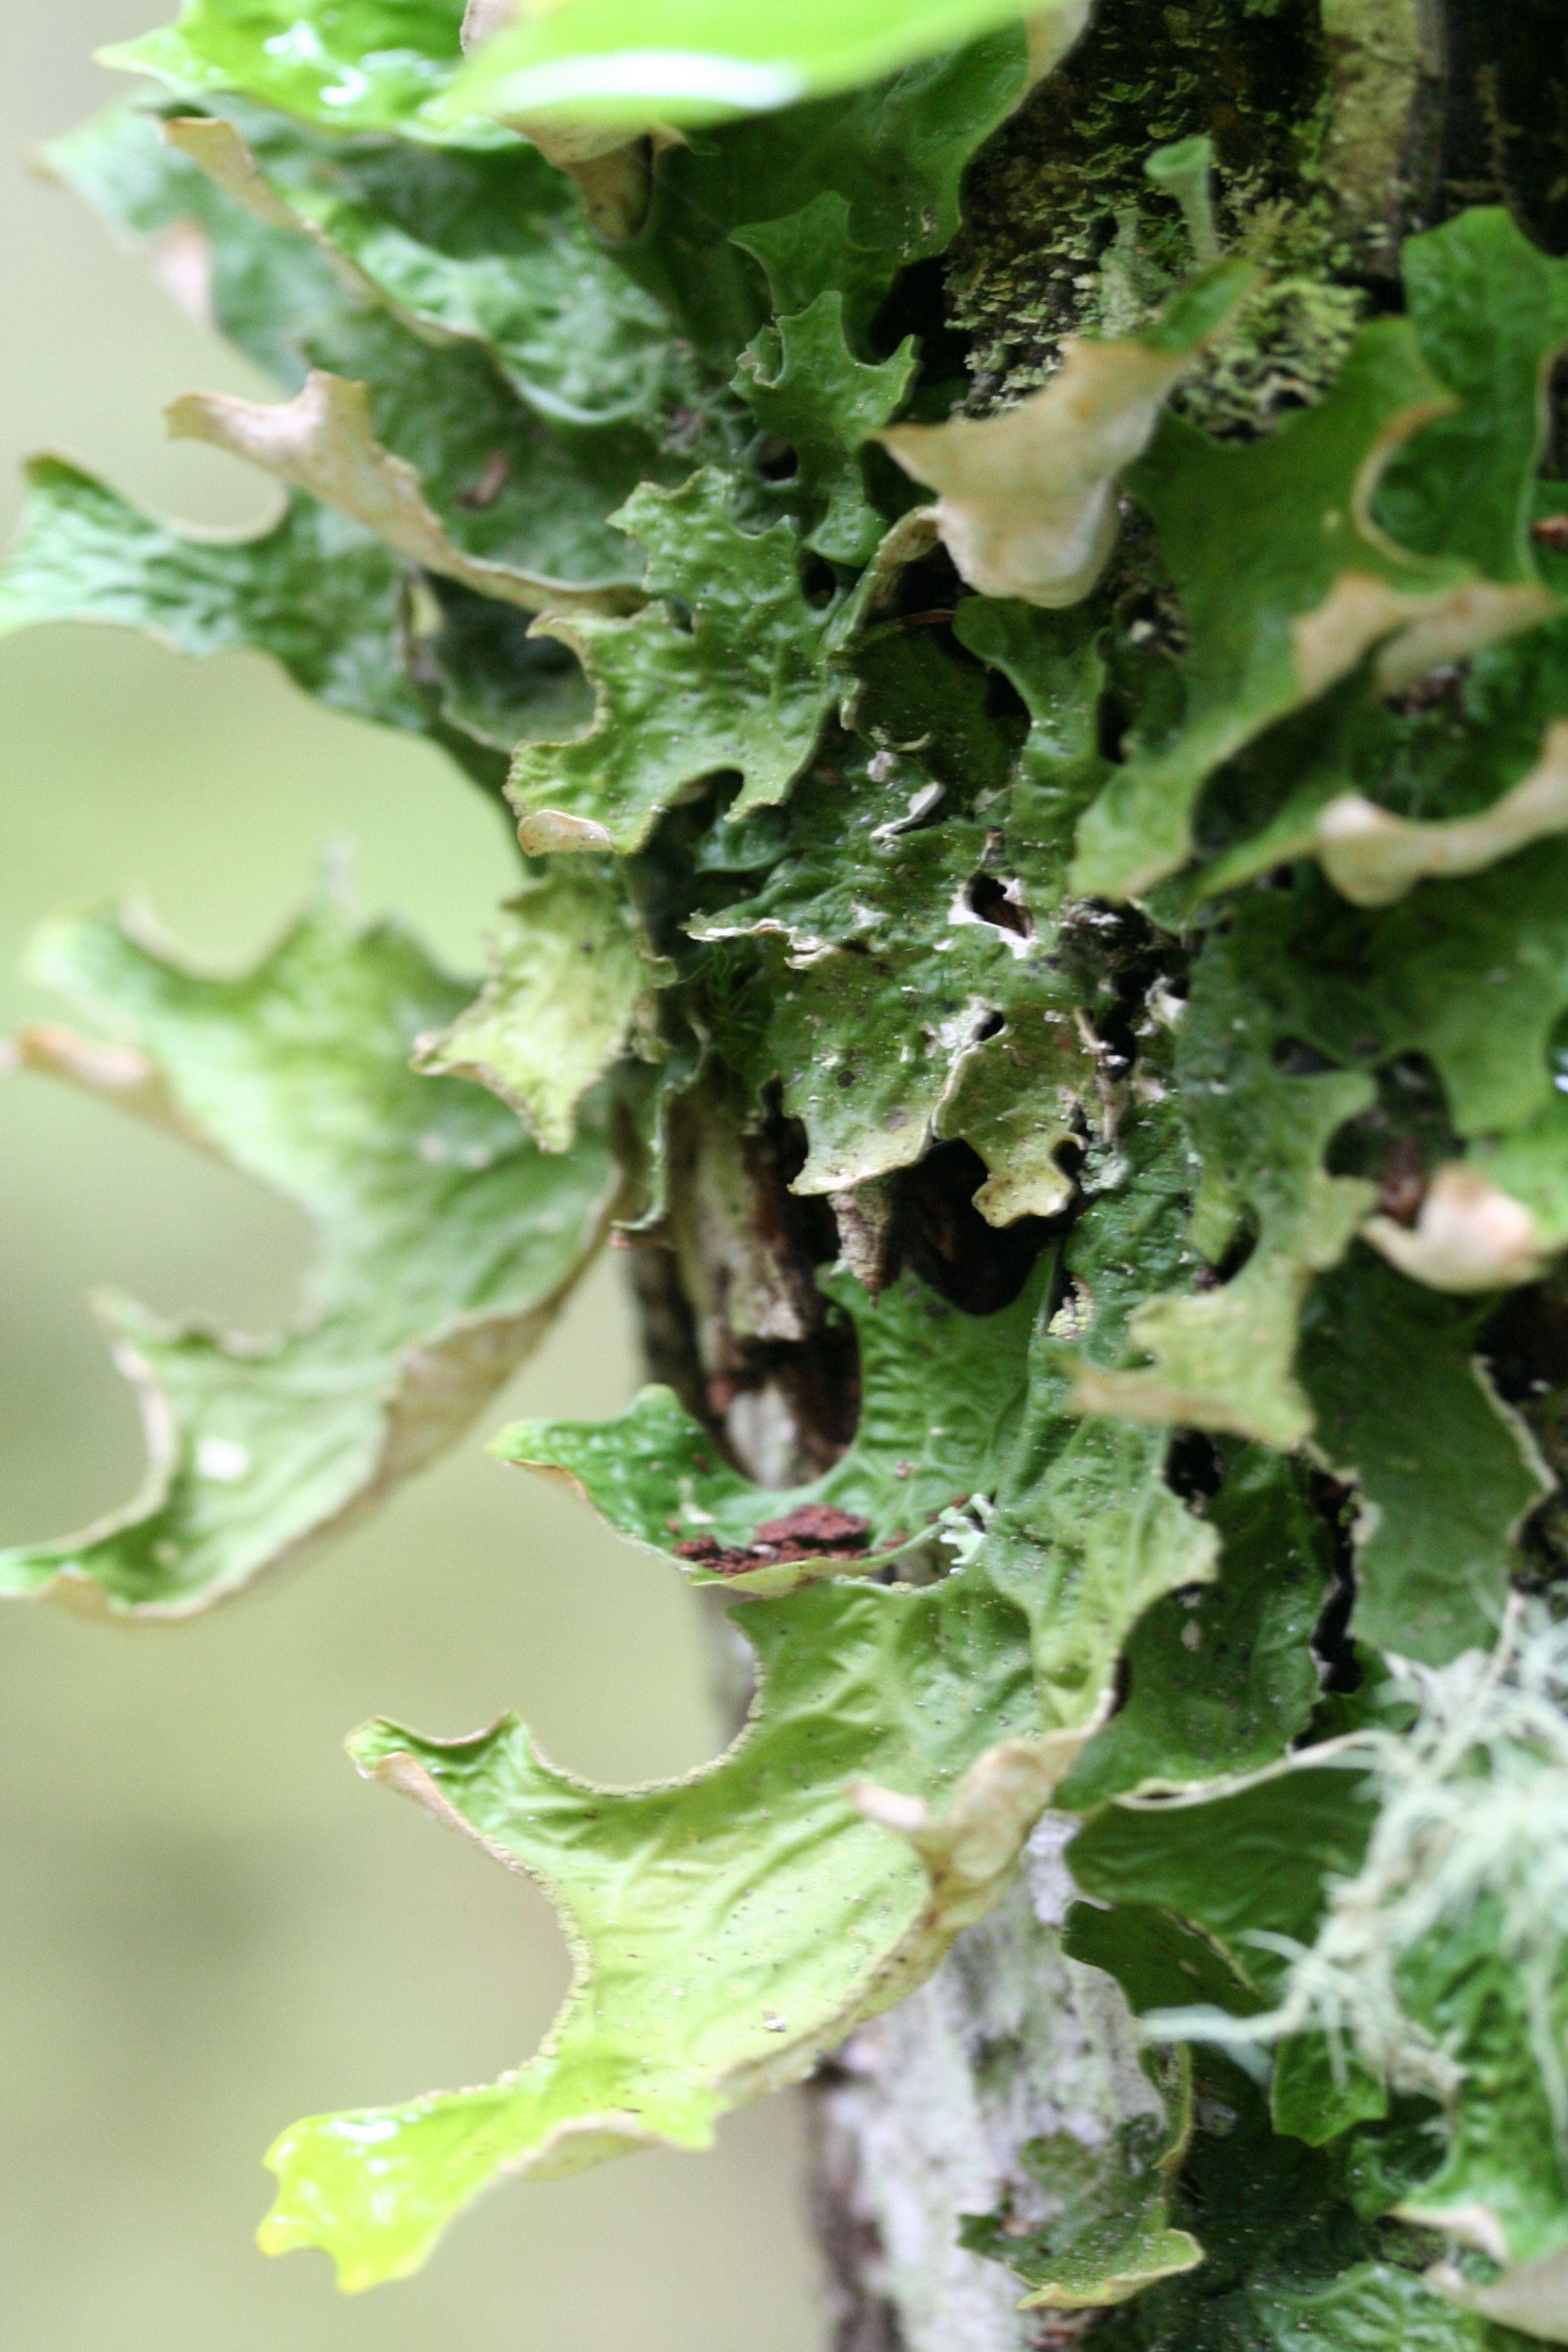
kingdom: Fungi
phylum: Ascomycota
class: Lecanoromycetes
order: Peltigerales
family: Lobariaceae
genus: Lobaria
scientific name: Lobaria pulmonaria
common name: Lungwort
